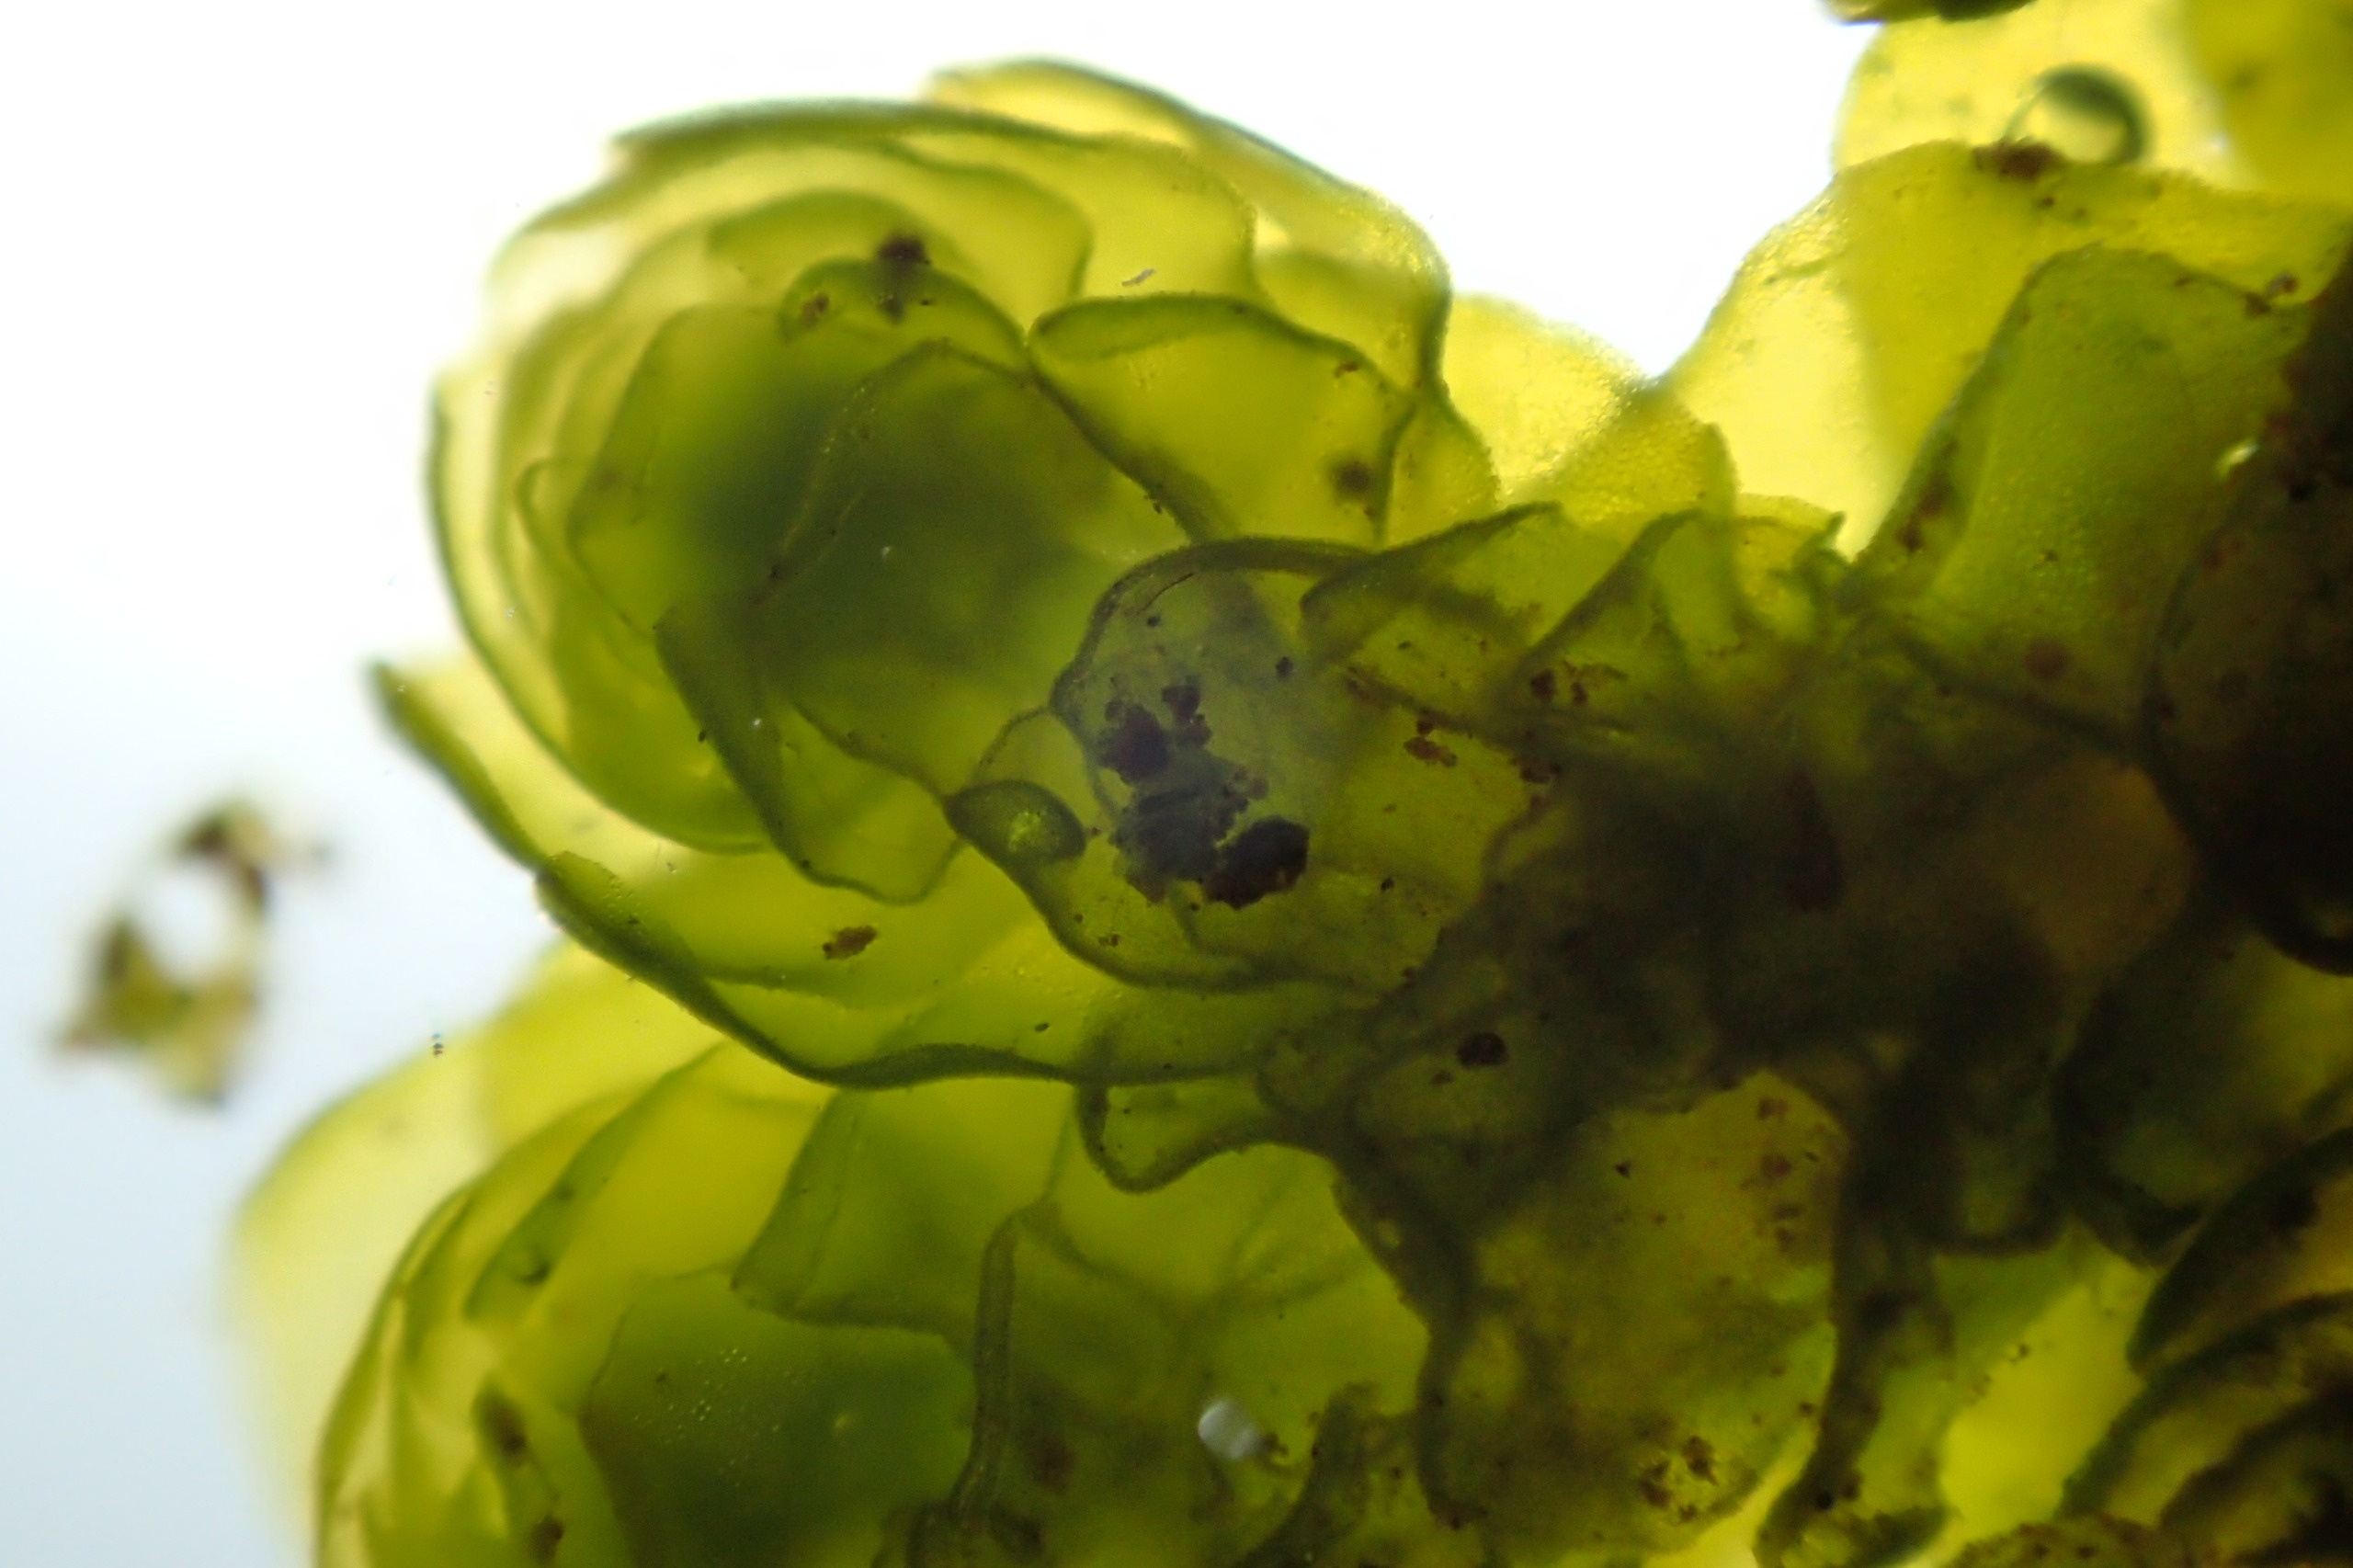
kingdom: Plantae
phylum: Marchantiophyta
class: Jungermanniopsida
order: Porellales
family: Porellaceae
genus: Porella
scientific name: Porella platyphylla
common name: Almindelig skælryg
